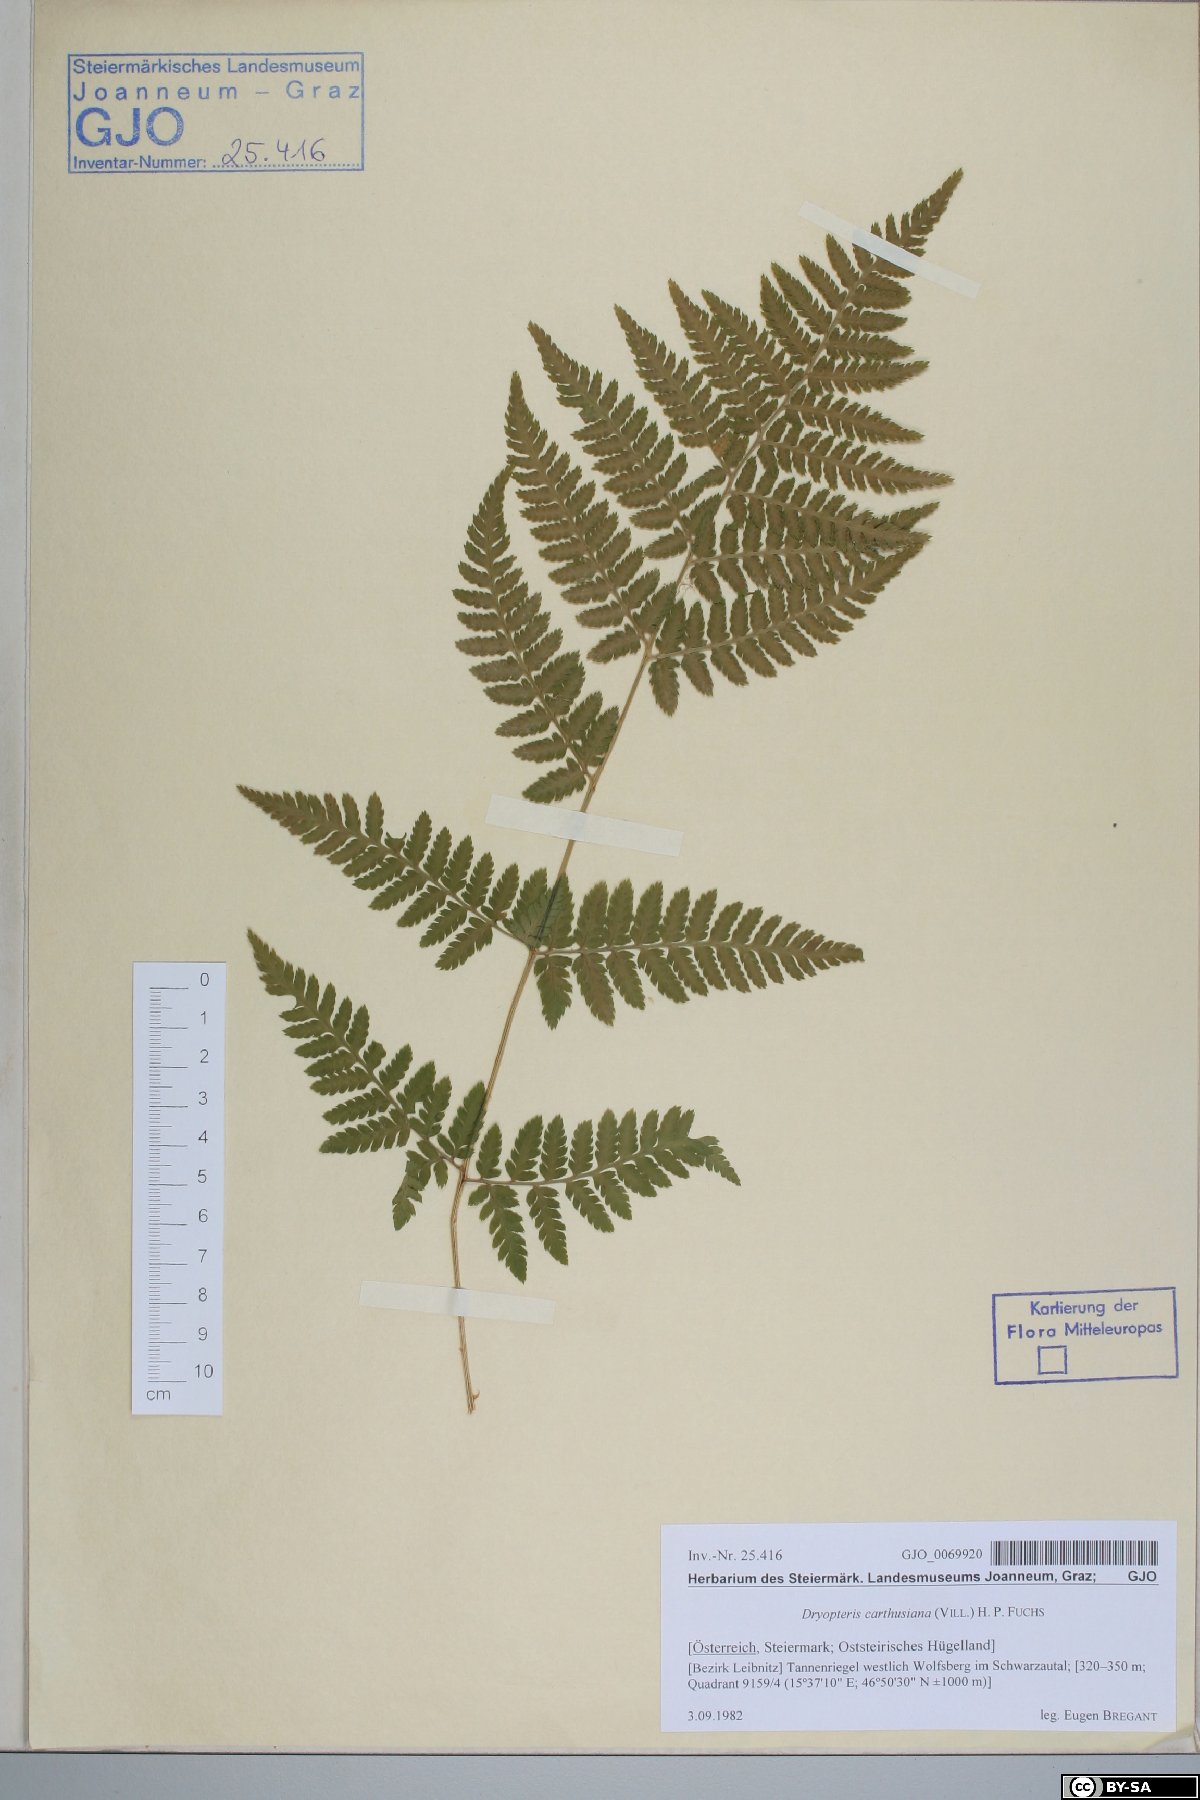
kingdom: Plantae
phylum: Tracheophyta
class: Polypodiopsida
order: Polypodiales
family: Dryopteridaceae
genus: Dryopteris
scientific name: Dryopteris carthusiana
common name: Narrow buckler-fern
